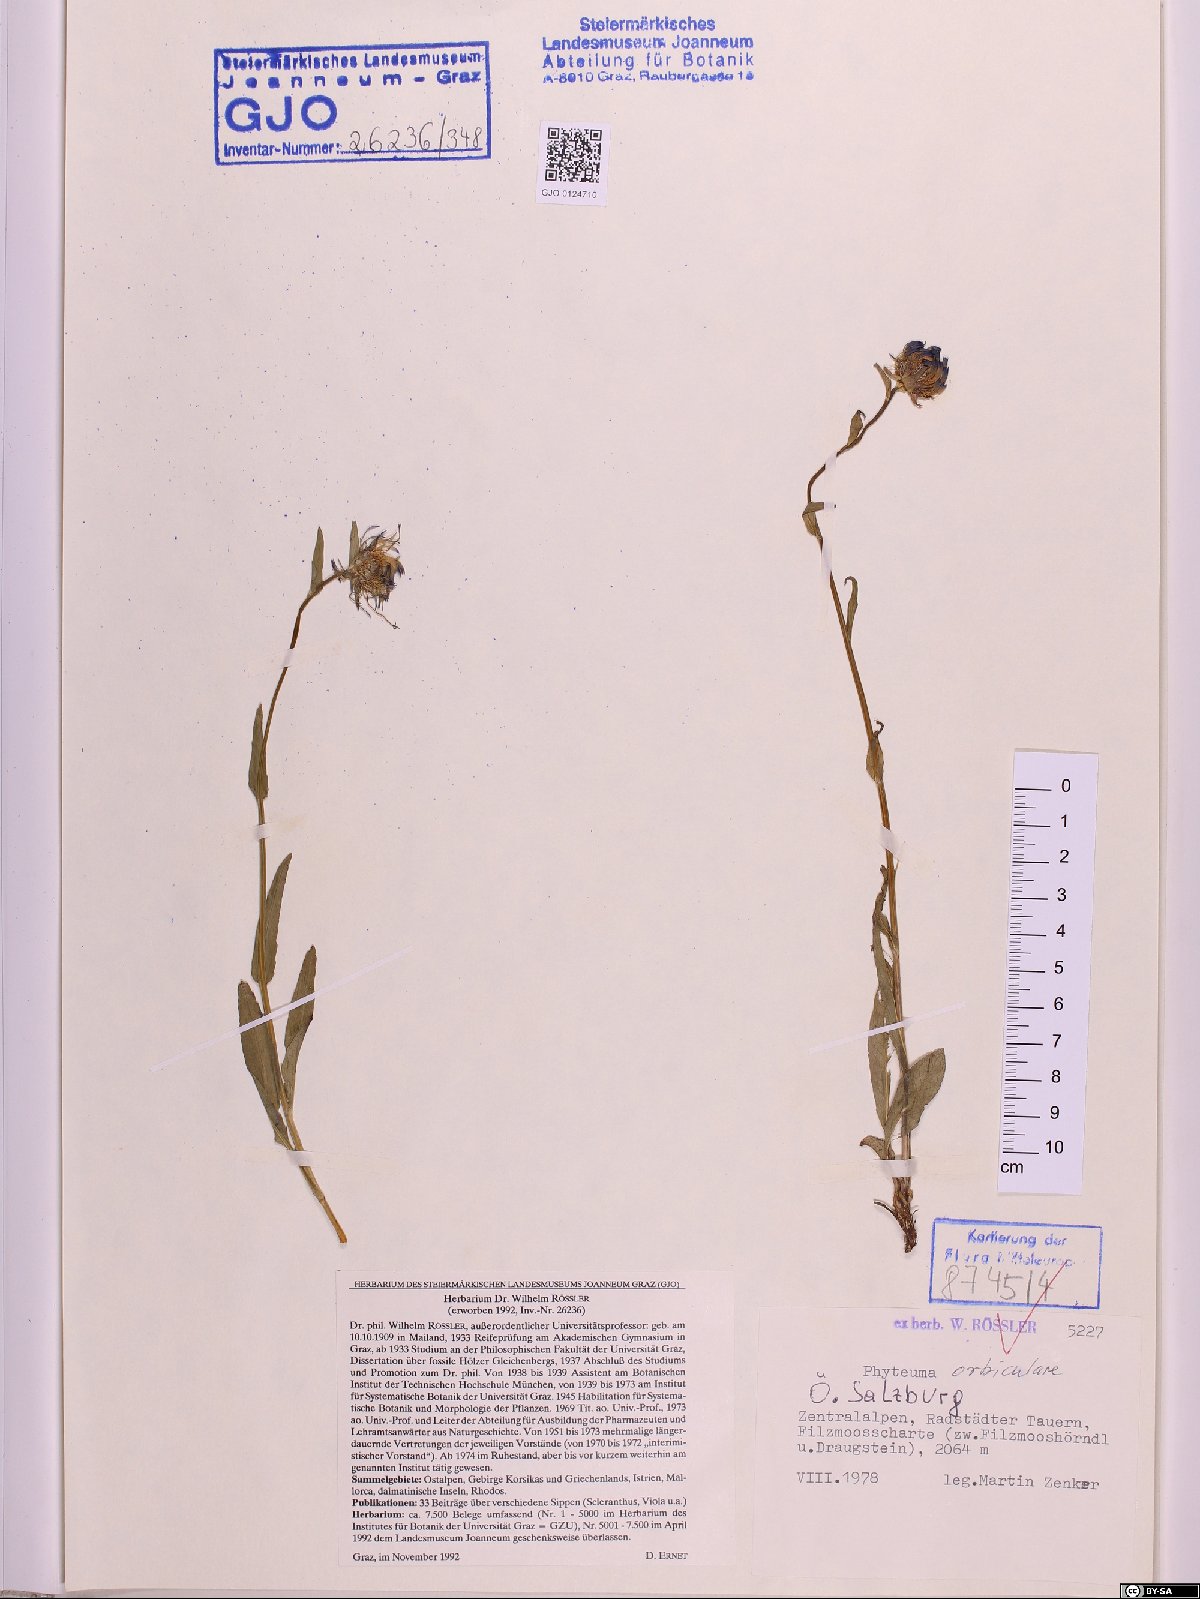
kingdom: Plantae
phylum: Tracheophyta
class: Magnoliopsida
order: Asterales
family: Campanulaceae
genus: Phyteuma
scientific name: Phyteuma orbiculare
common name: Round-headed rampion
